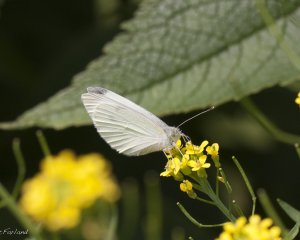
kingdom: Animalia
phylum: Arthropoda
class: Insecta
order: Lepidoptera
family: Pieridae
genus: Pieris
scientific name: Pieris rapae
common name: Cabbage White
